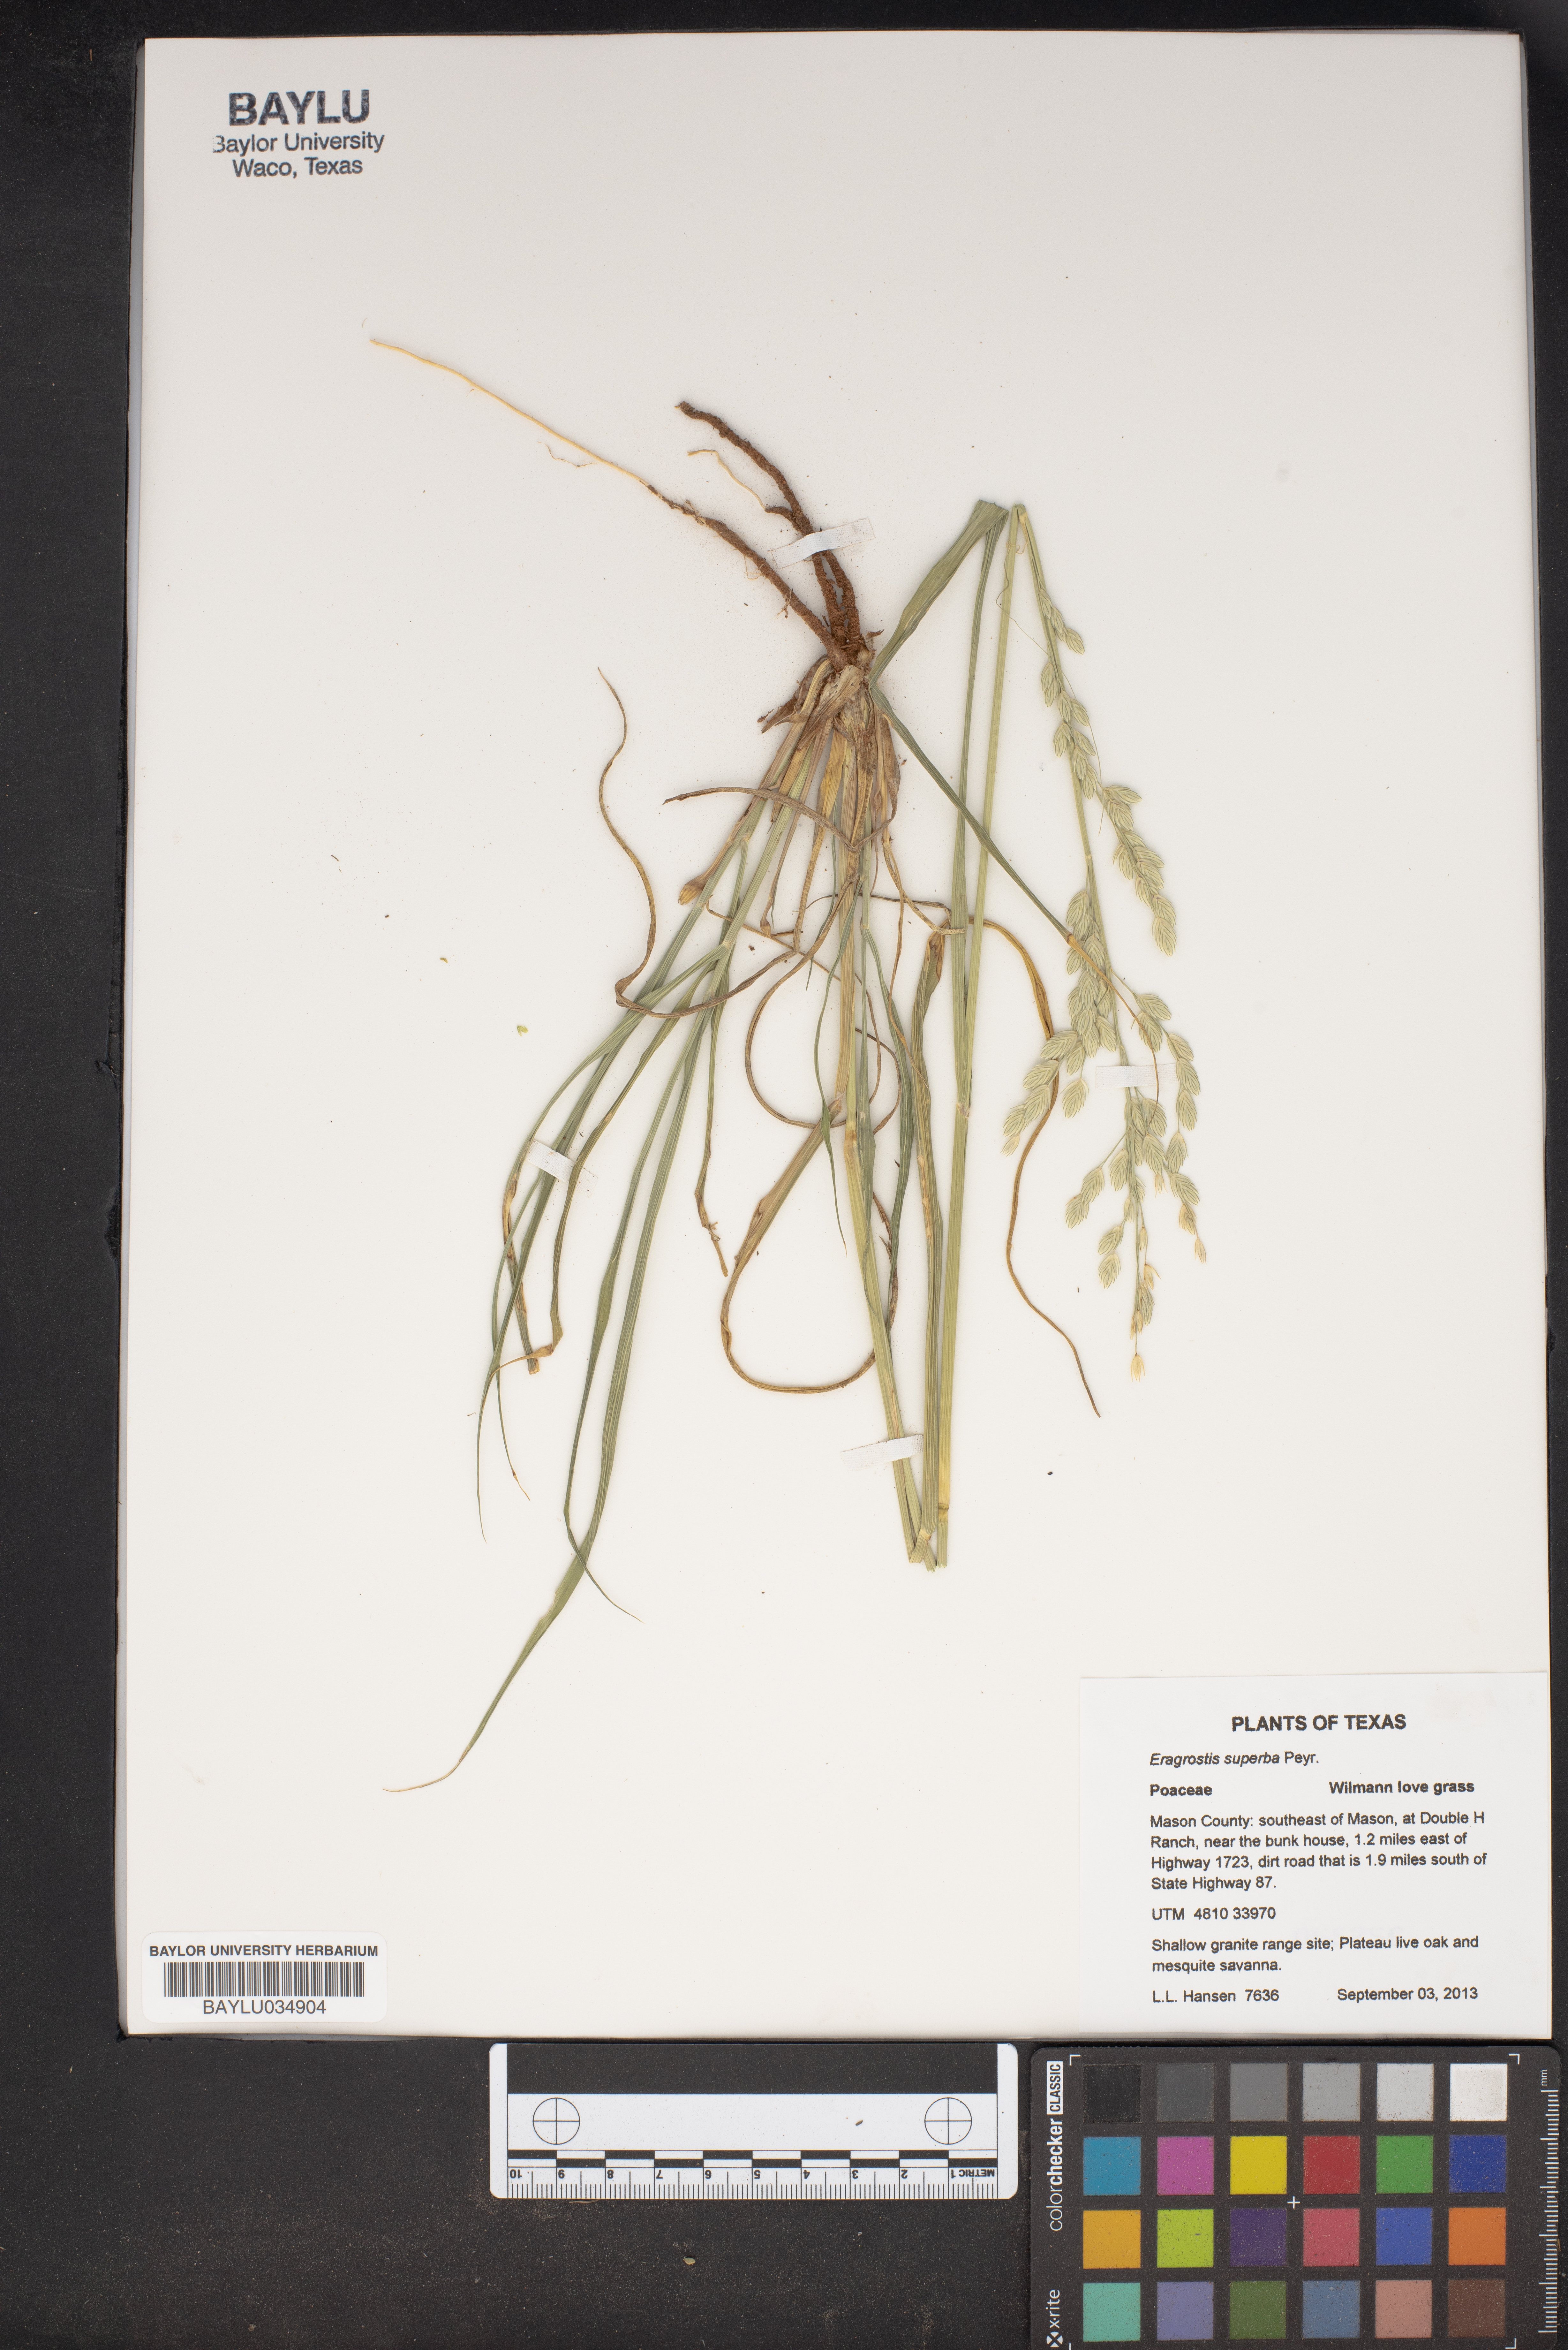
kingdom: Plantae
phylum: Tracheophyta
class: Liliopsida
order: Poales
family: Poaceae
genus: Eragrostis
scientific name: Eragrostis superba
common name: Wilman lovegrass
